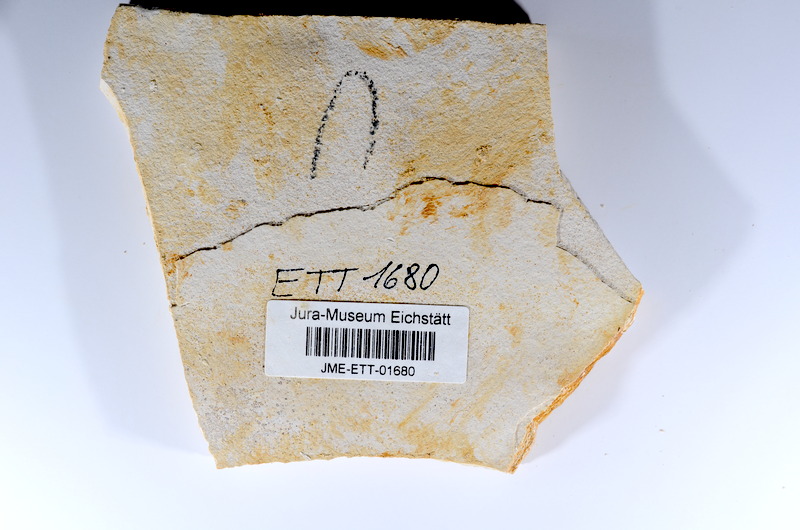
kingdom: Animalia
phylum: Chordata
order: Salmoniformes
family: Orthogonikleithridae
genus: Orthogonikleithrus
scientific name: Orthogonikleithrus hoelli
